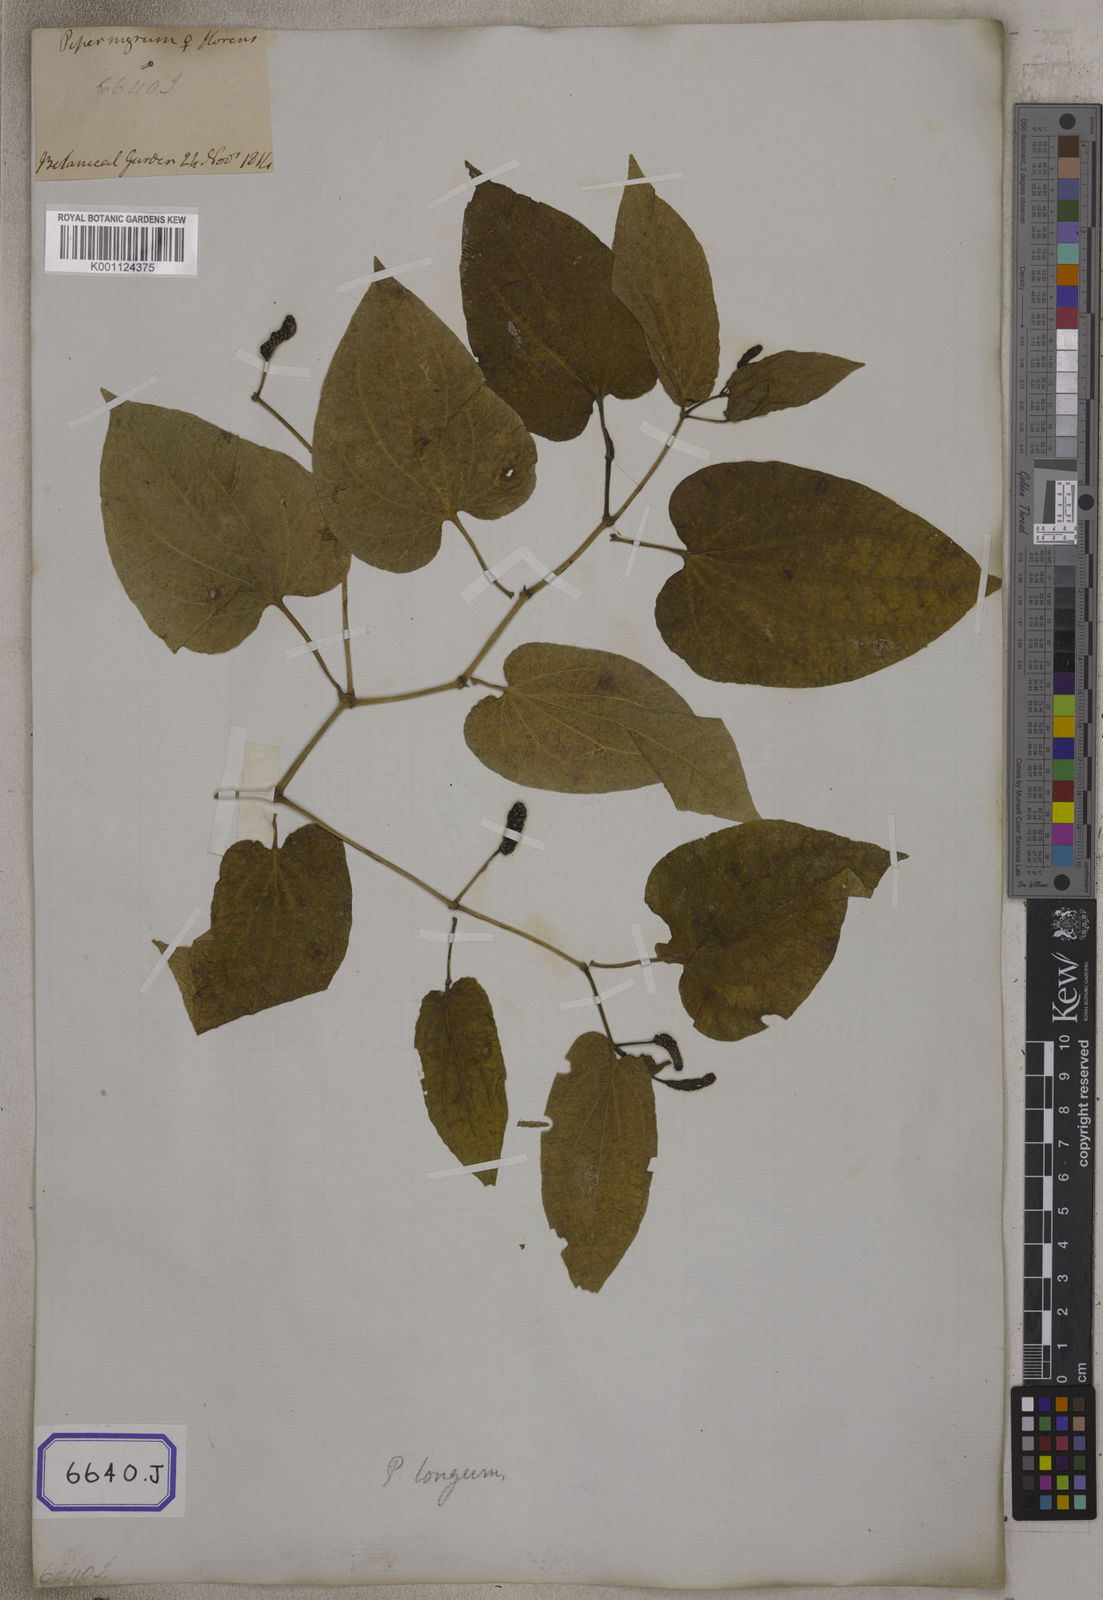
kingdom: Plantae
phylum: Tracheophyta
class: Magnoliopsida
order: Piperales
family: Piperaceae
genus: Piper
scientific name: Piper longum
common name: Long pepper
